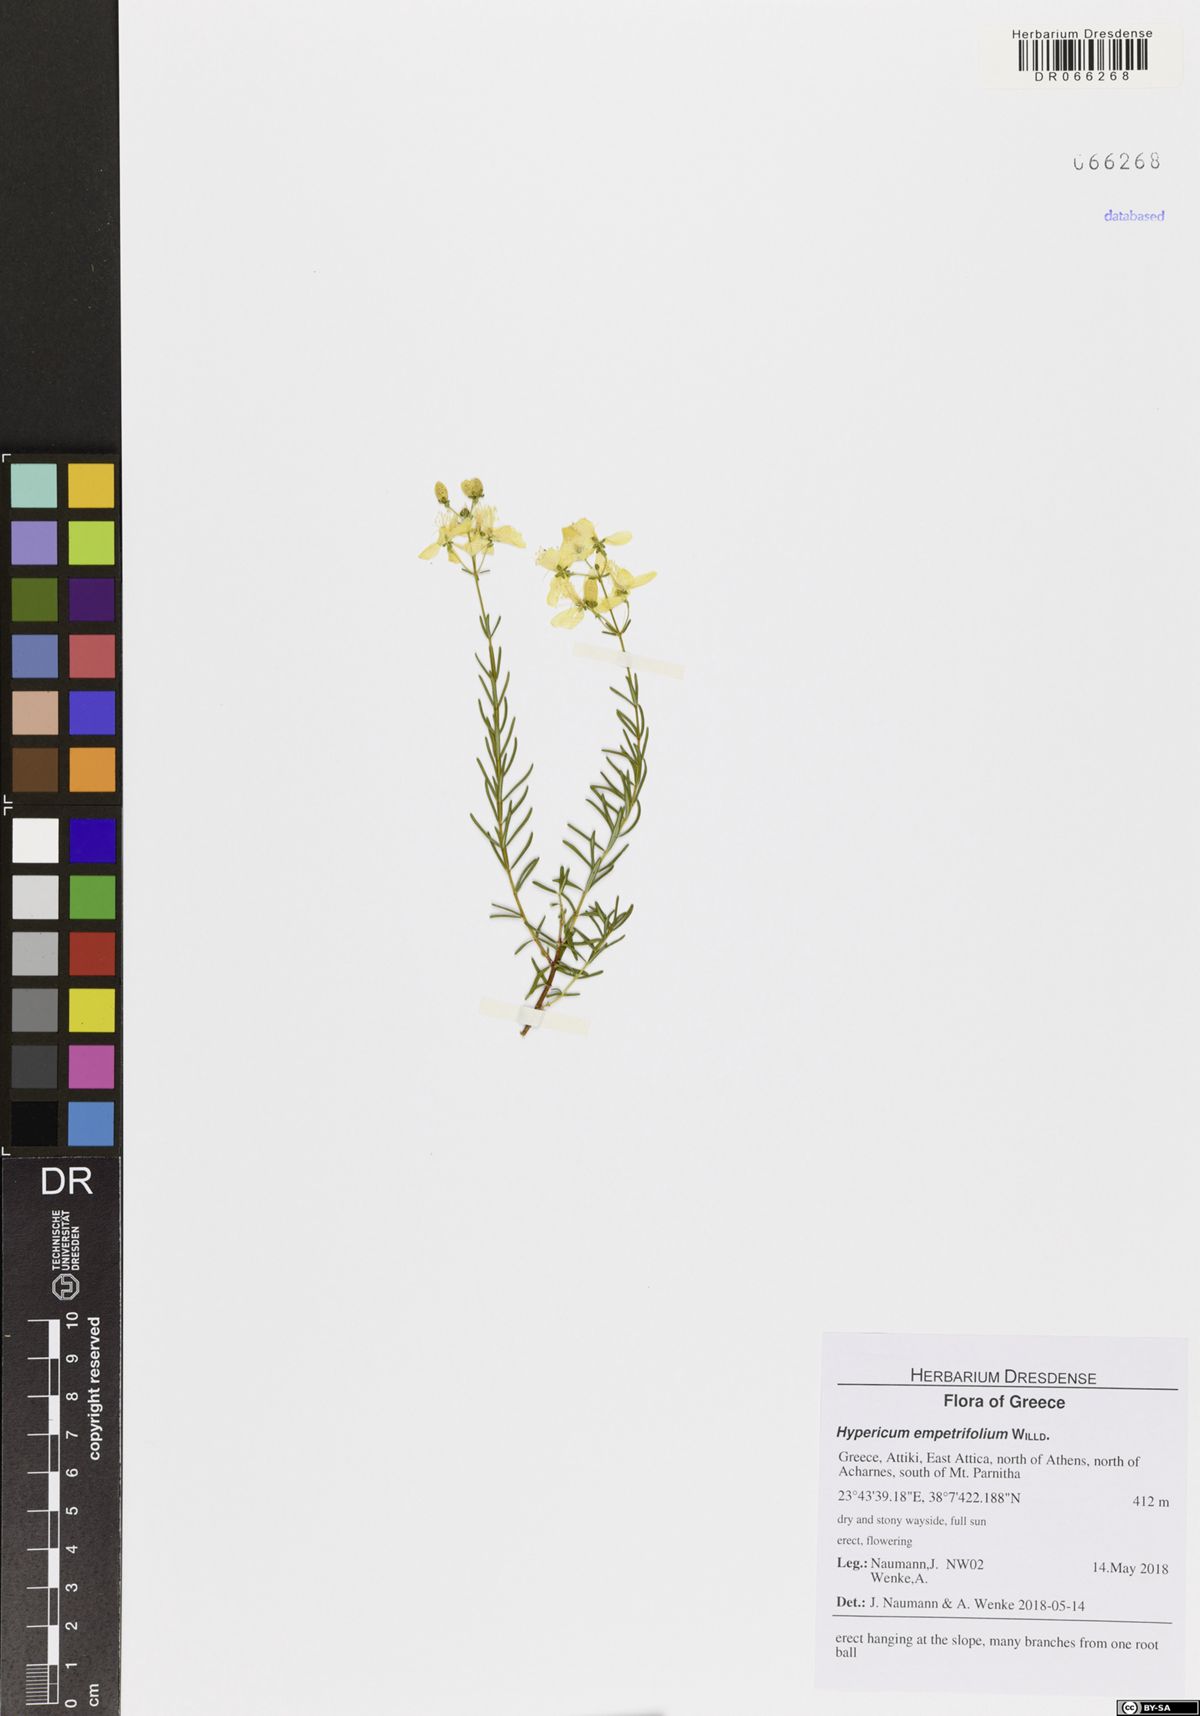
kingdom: Plantae
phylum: Tracheophyta
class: Magnoliopsida
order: Malpighiales
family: Hypericaceae
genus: Hypericum
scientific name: Hypericum empetrifolium
